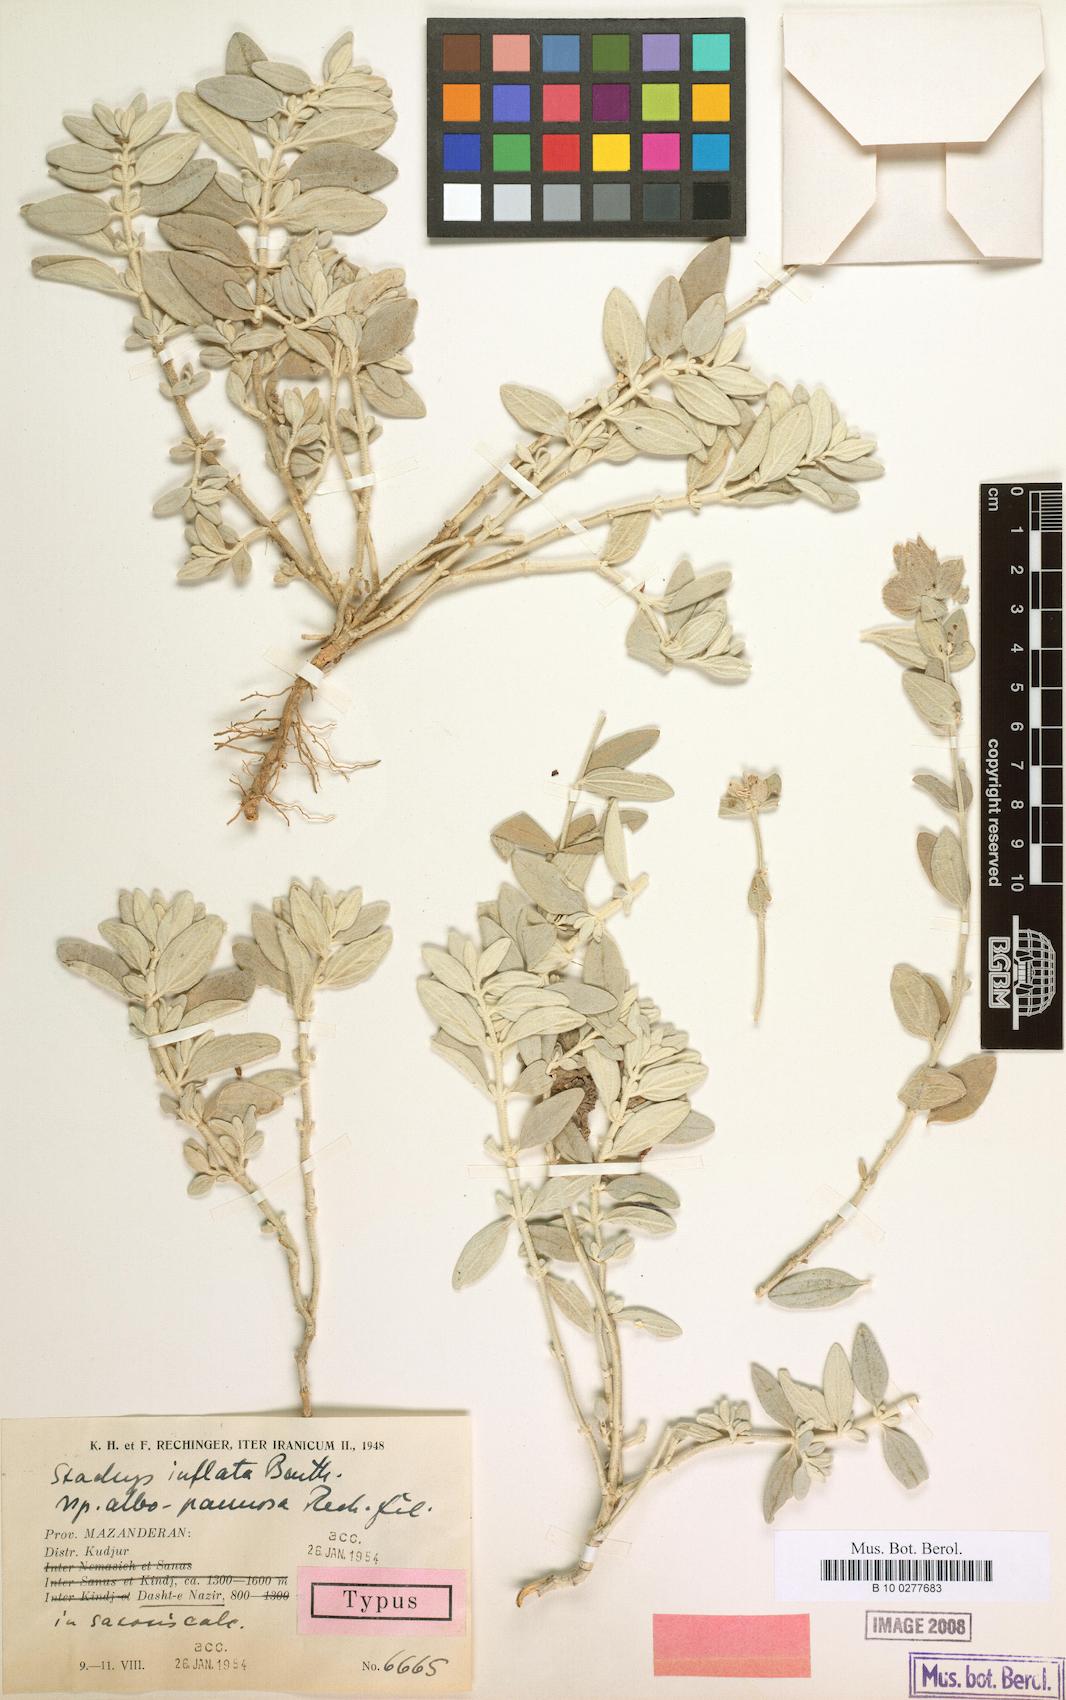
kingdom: Plantae
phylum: Tracheophyta
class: Magnoliopsida
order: Lamiales
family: Lamiaceae
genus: Stachys
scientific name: Stachys inflata
